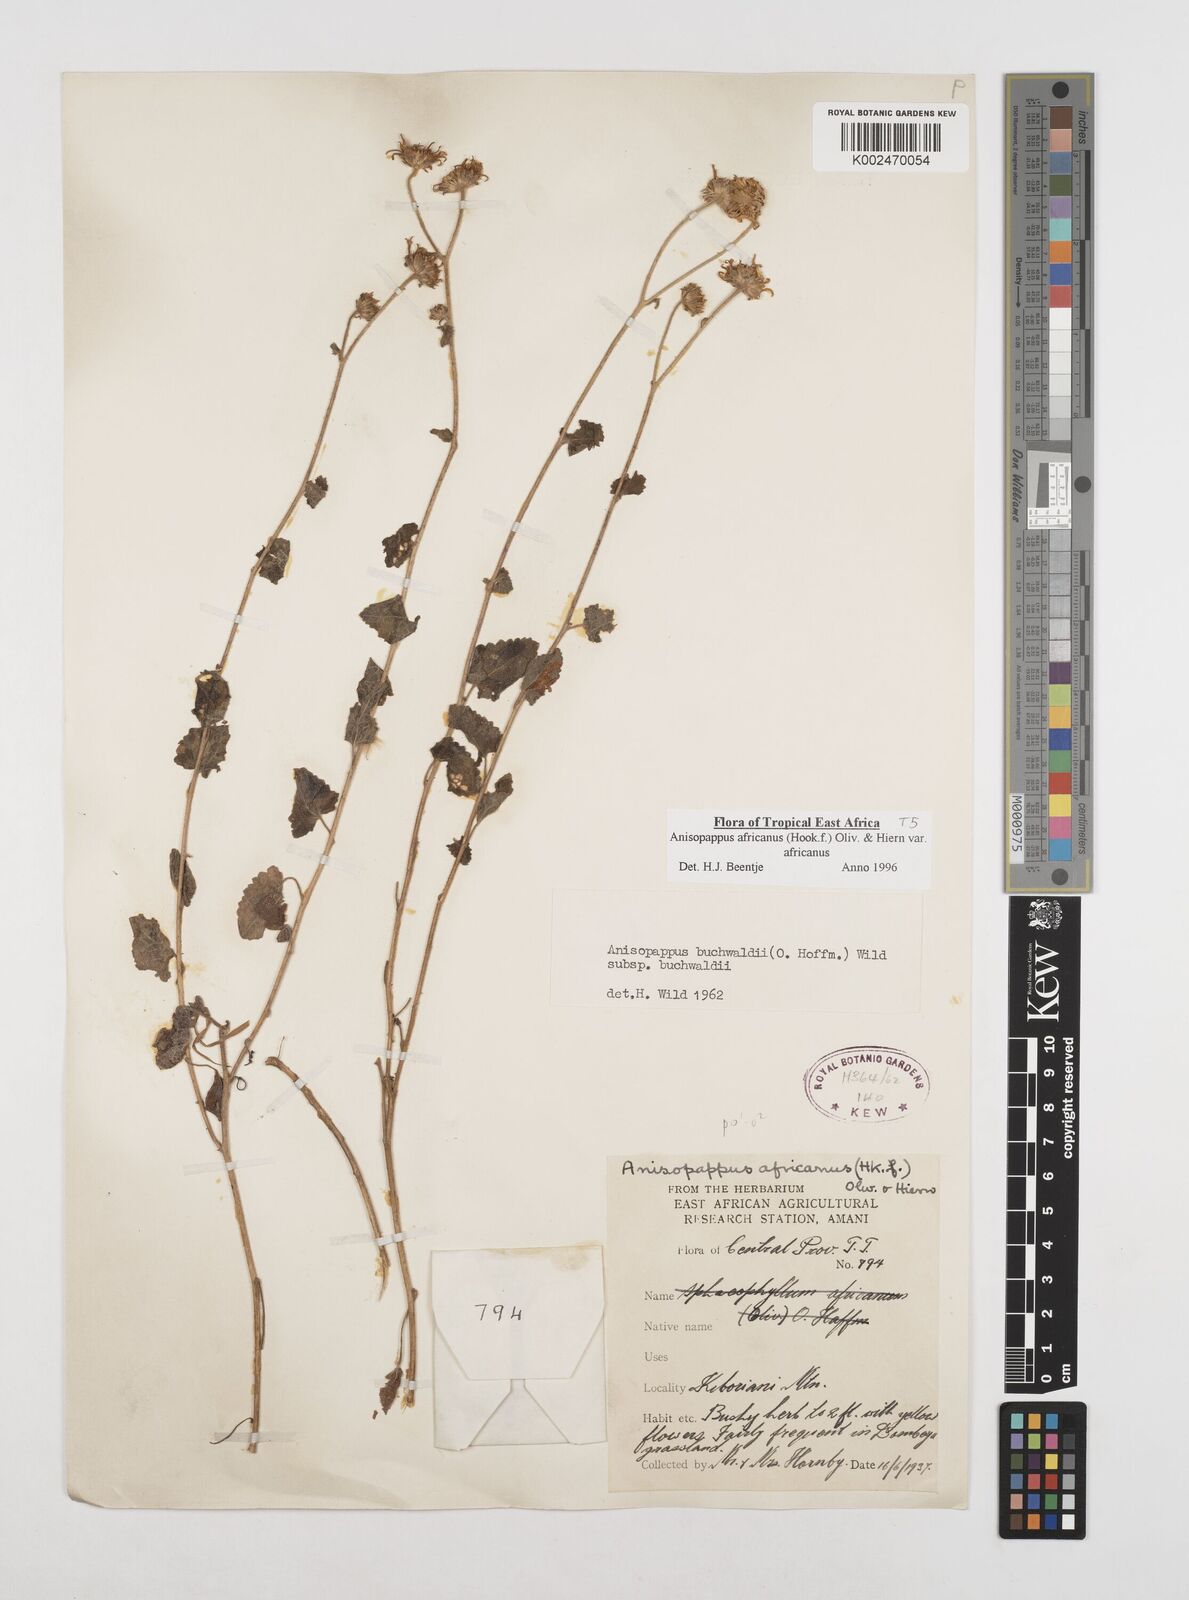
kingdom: Plantae
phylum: Tracheophyta
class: Magnoliopsida
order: Asterales
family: Asteraceae
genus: Anisopappus
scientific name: Anisopappus buchwaldii
